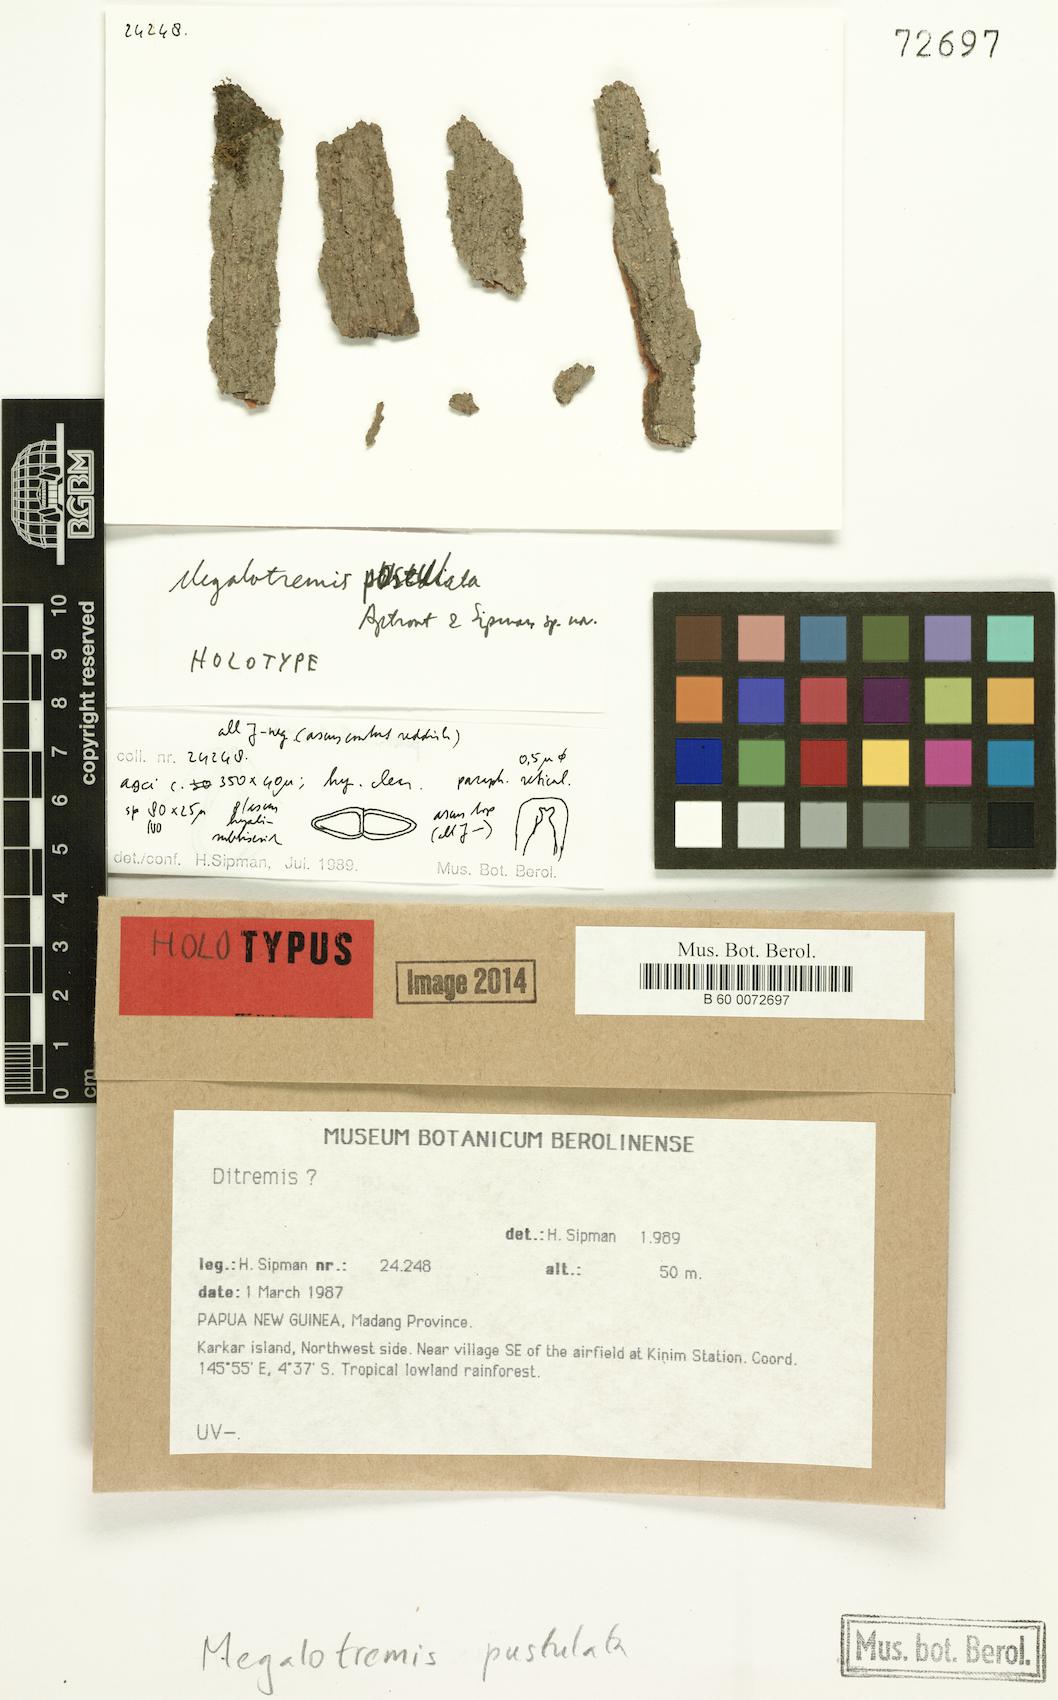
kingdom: Fungi
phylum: Ascomycota
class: Dothideomycetes
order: Monoblastiales
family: Monoblastiaceae
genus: Megalotremis
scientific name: Megalotremis pustulata
